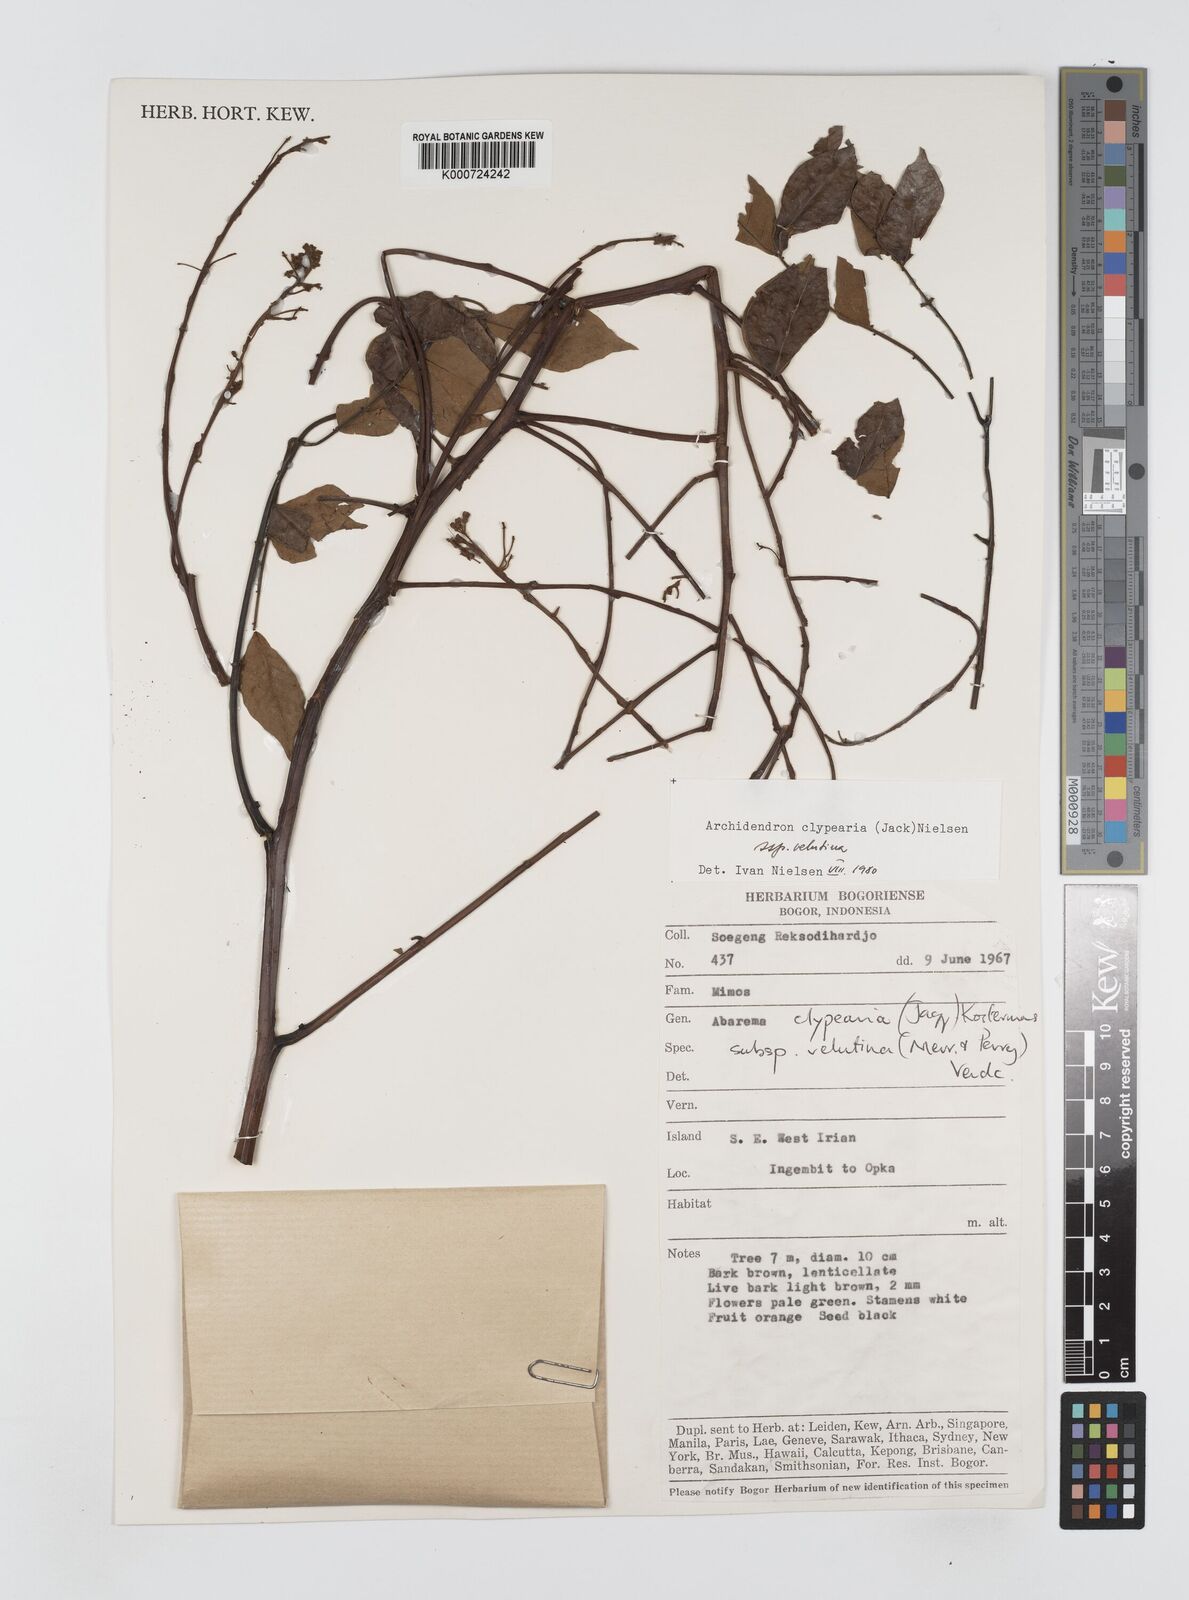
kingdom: Plantae
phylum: Tracheophyta
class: Magnoliopsida
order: Fabales
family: Fabaceae
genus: Archidendron
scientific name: Archidendron clypearia
